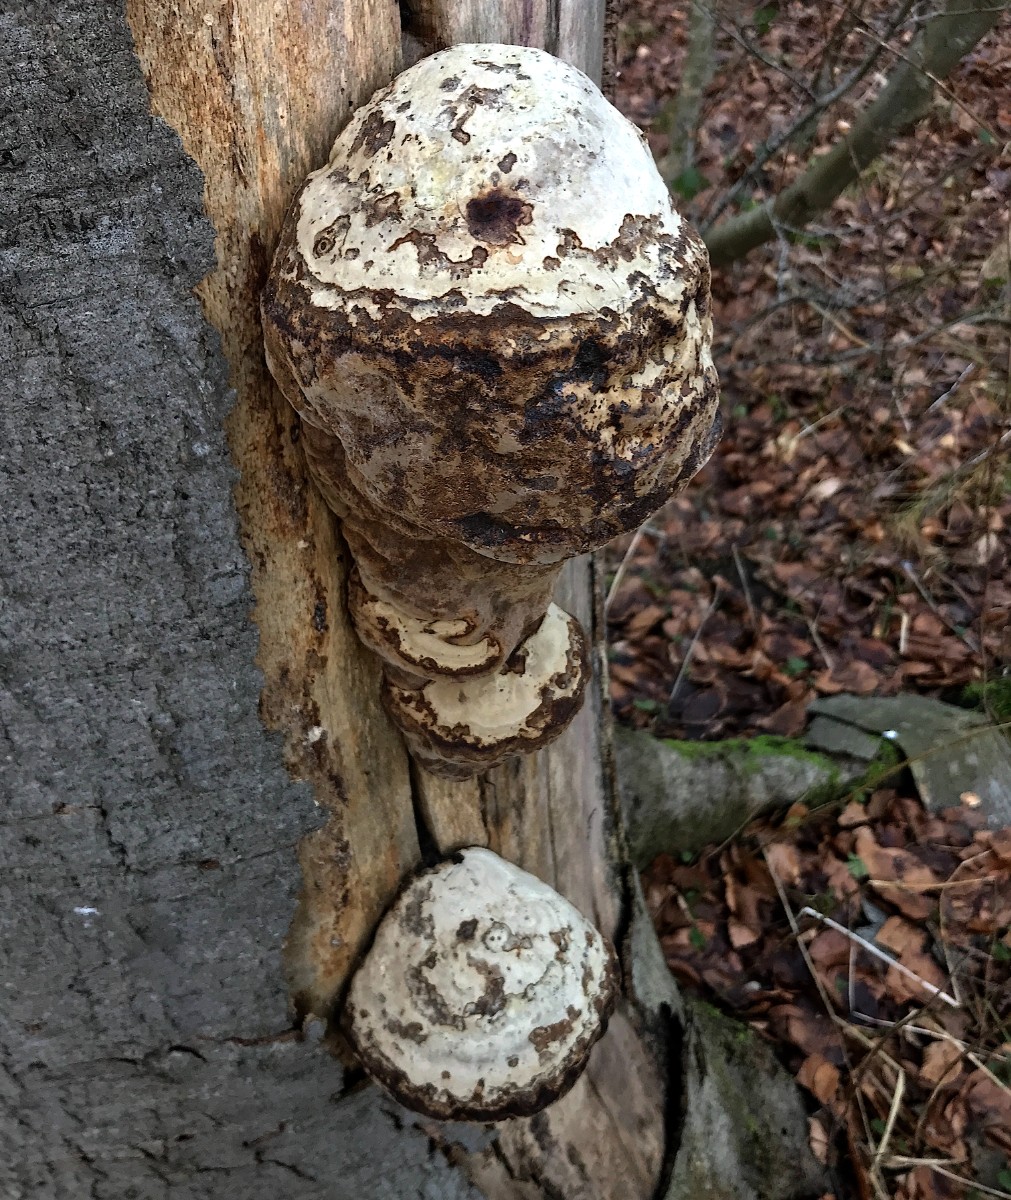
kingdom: Fungi
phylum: Basidiomycota
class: Agaricomycetes
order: Polyporales
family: Polyporaceae
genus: Fomes
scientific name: Fomes fomentarius
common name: tøndersvamp
